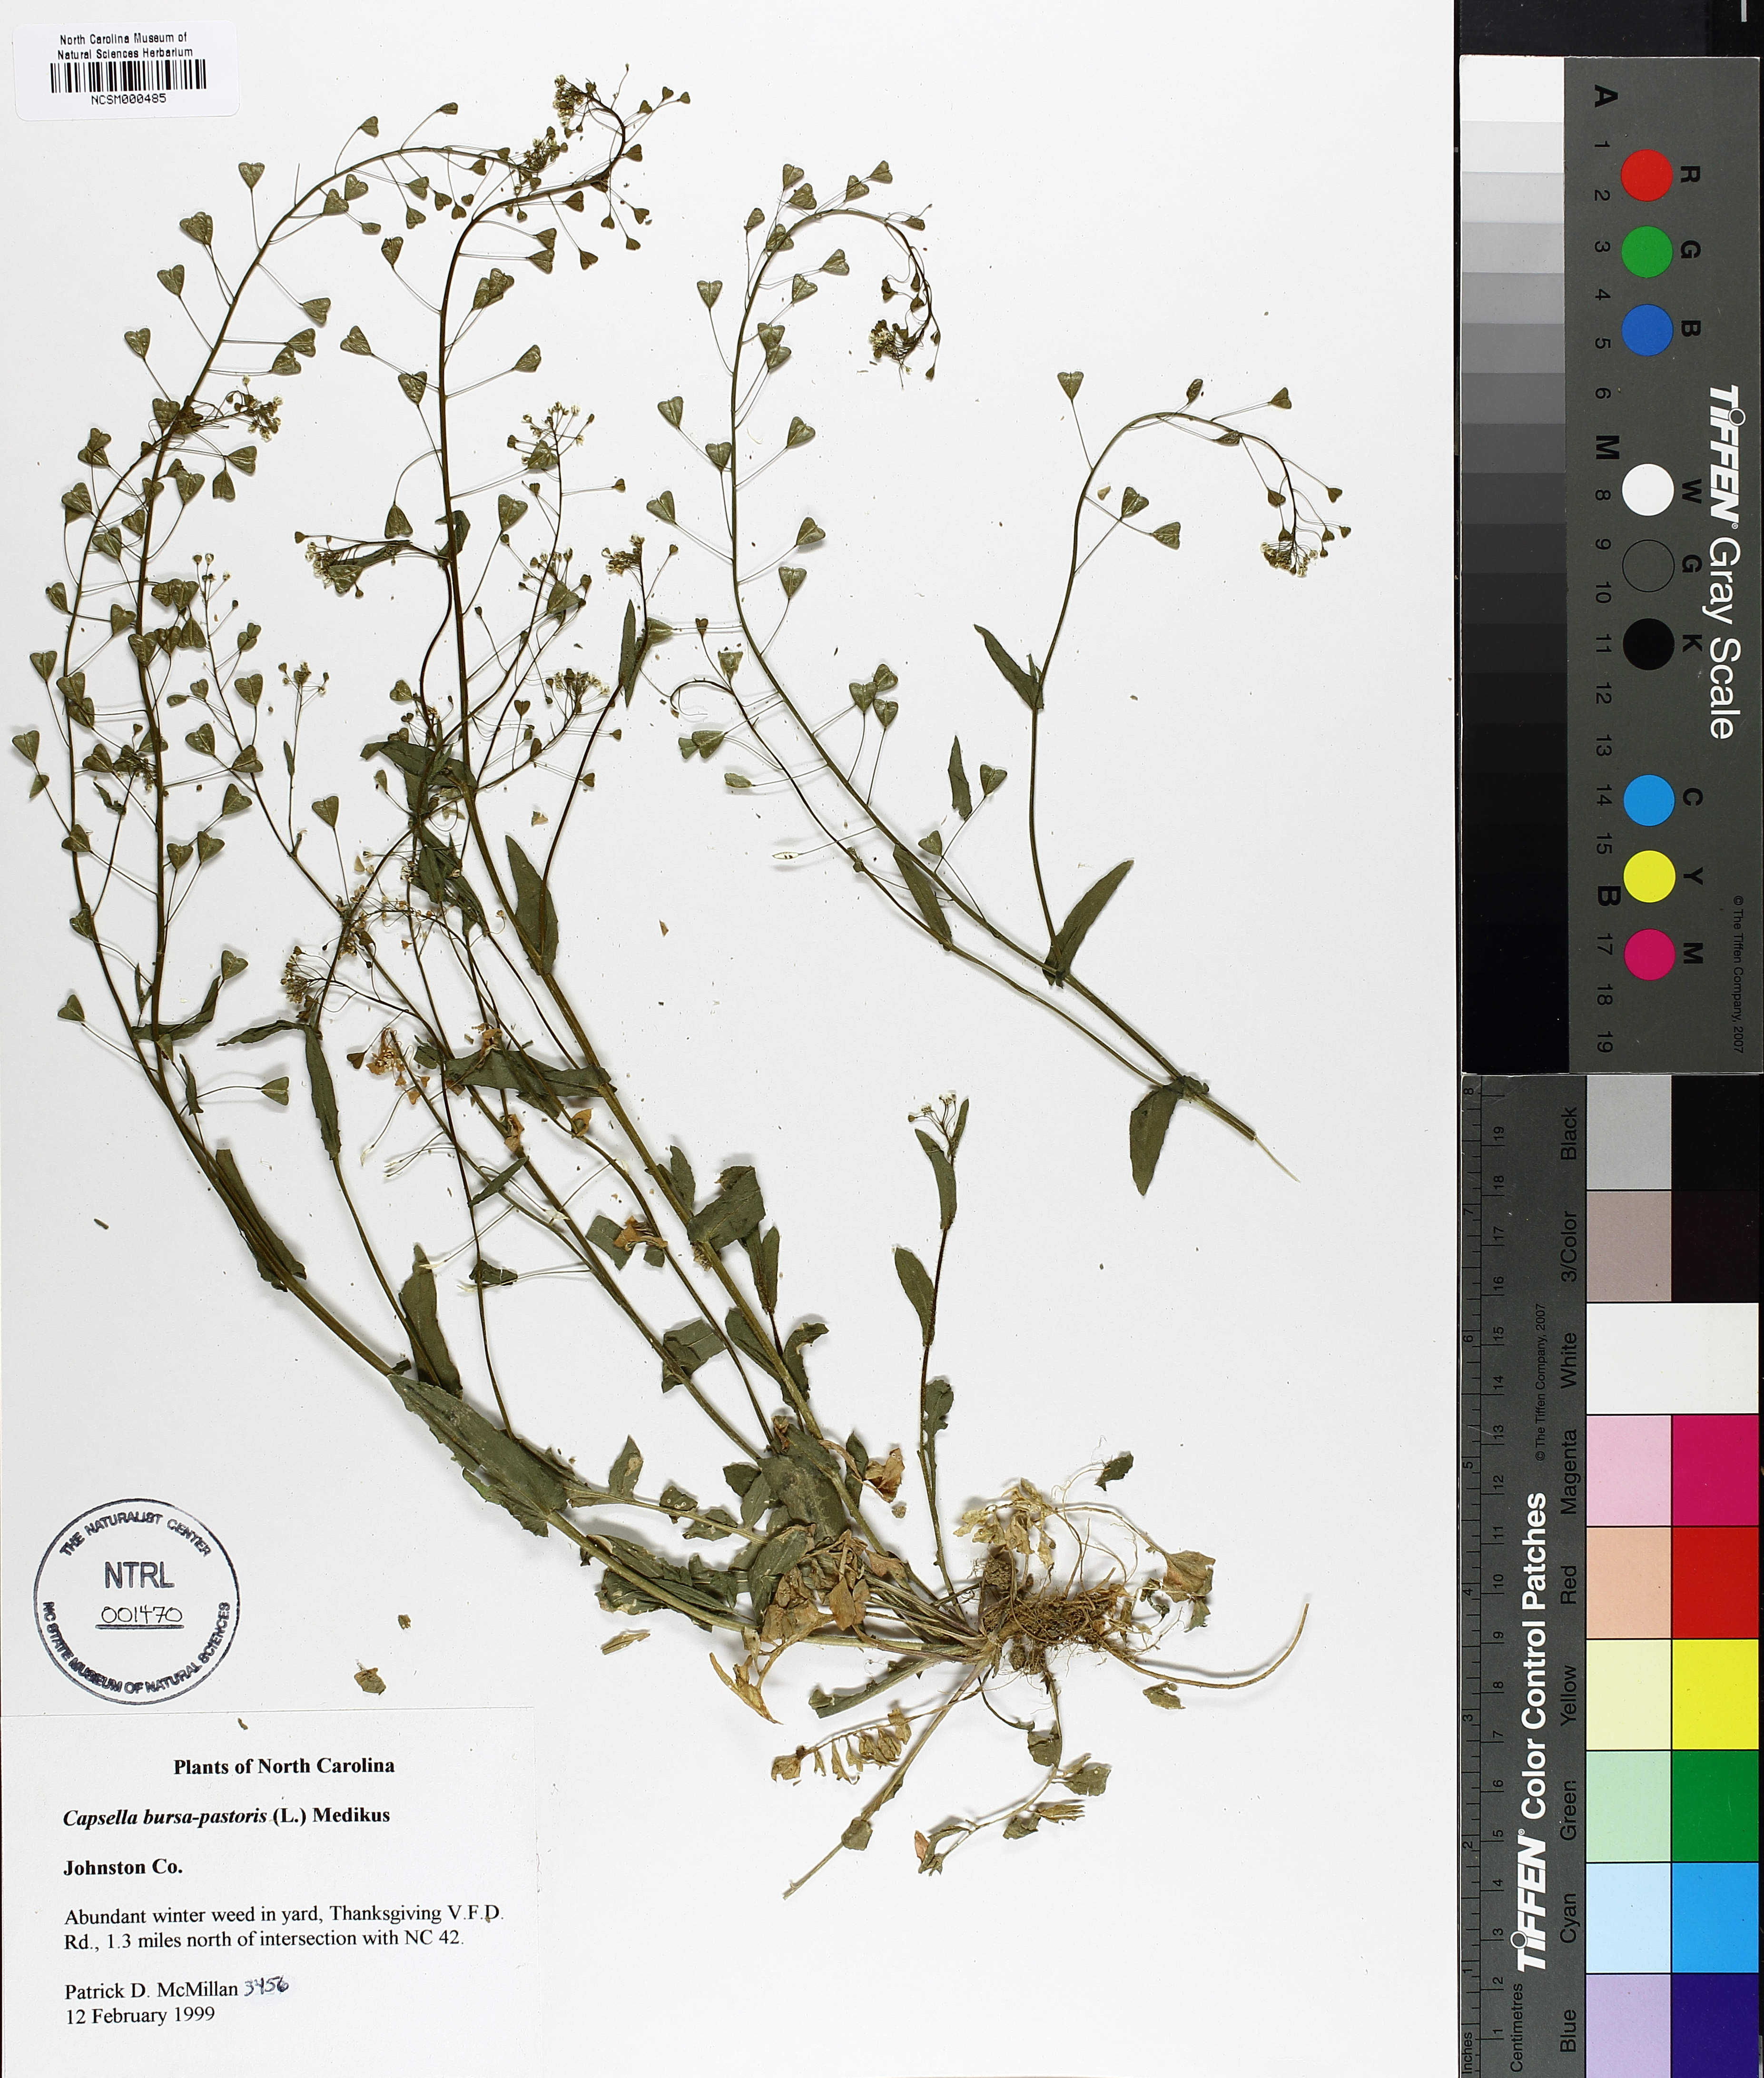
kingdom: Plantae
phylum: Tracheophyta
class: Magnoliopsida
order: Brassicales
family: Brassicaceae
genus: Capsella
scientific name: Capsella bursa-pastoris
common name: Shepherd's purse
